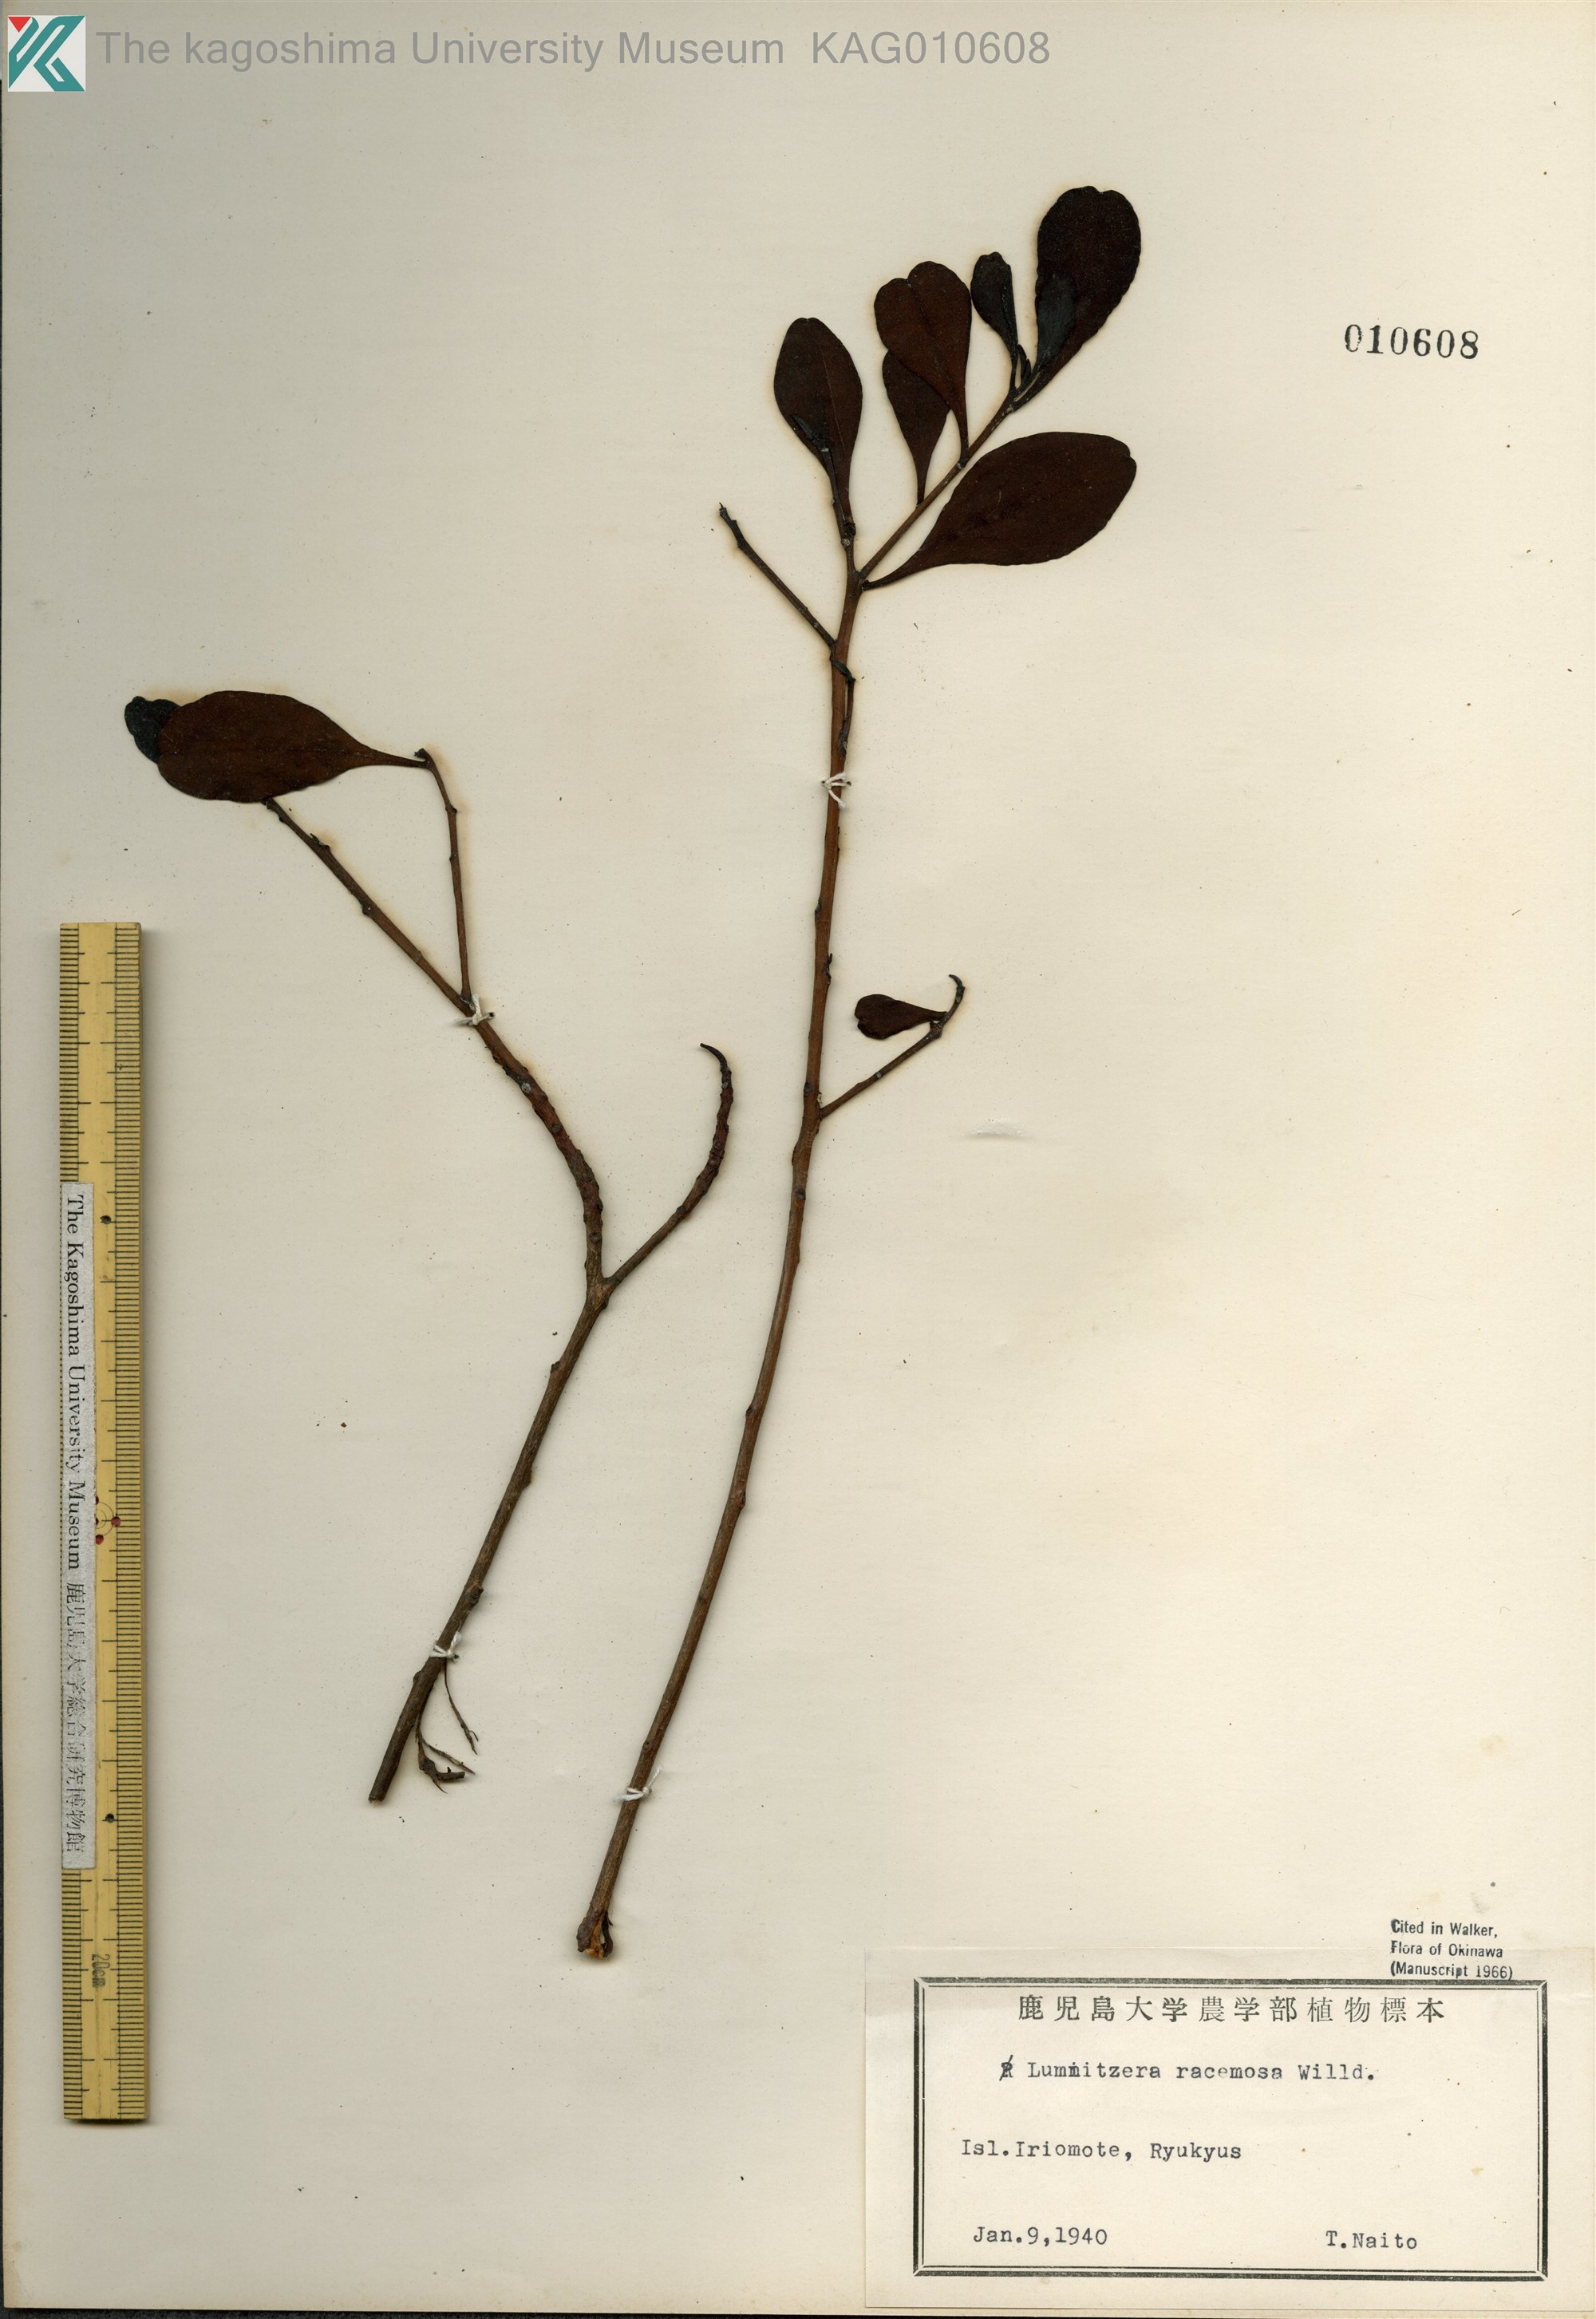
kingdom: Plantae
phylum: Tracheophyta
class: Magnoliopsida
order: Myrtales
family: Combretaceae
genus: Lumnitzera
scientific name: Lumnitzera racemosa
